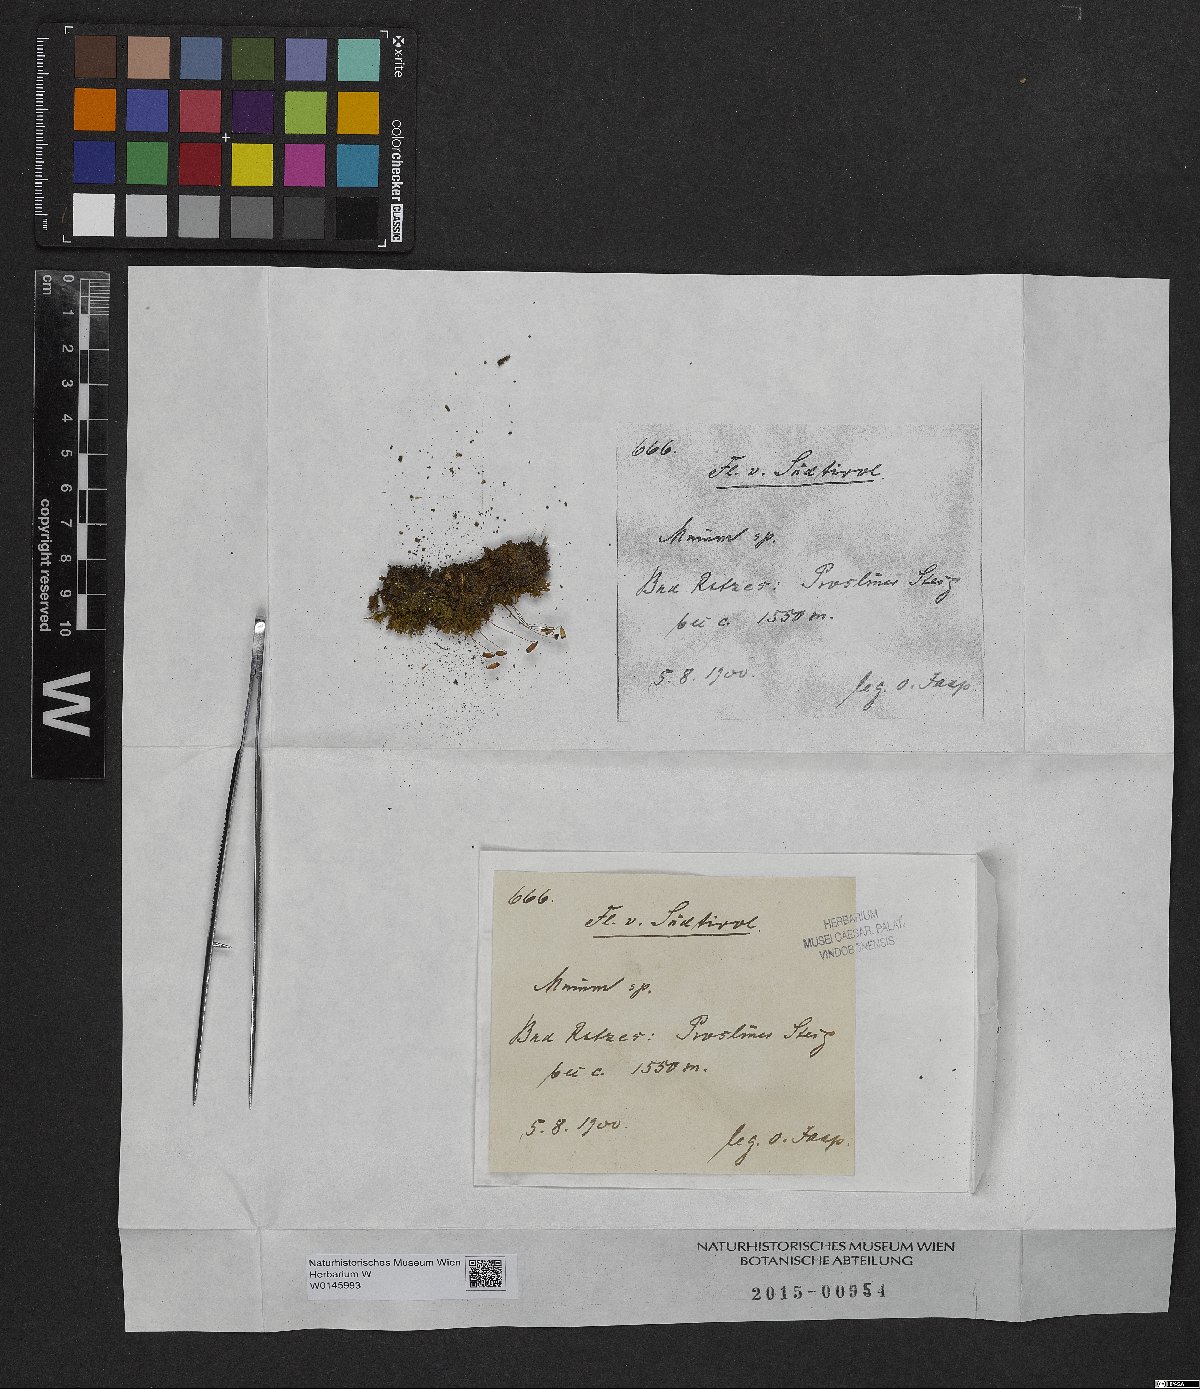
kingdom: Plantae
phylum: Bryophyta
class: Bryopsida
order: Bryales
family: Mniaceae
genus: Mnium
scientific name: Mnium
